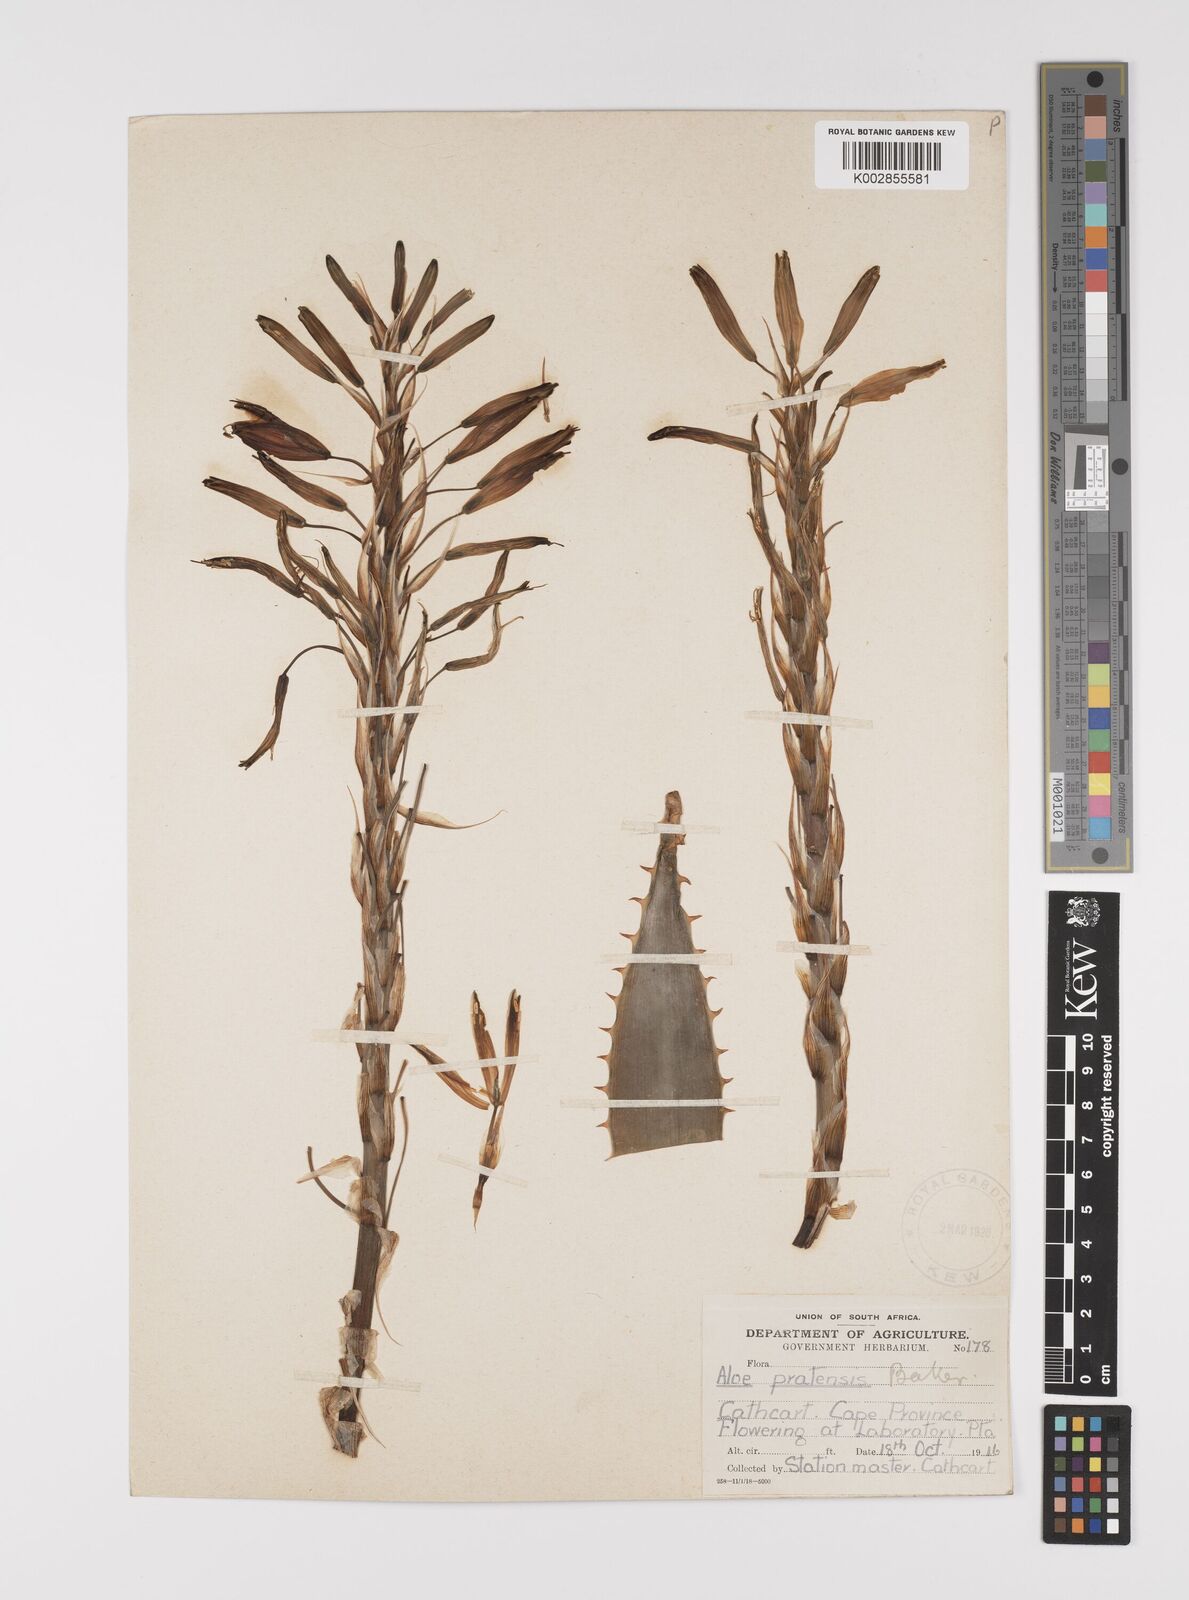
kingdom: Plantae
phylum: Tracheophyta
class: Liliopsida
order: Asparagales
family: Asphodelaceae
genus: Aloe
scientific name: Aloe pratensis
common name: Meadow aloe
